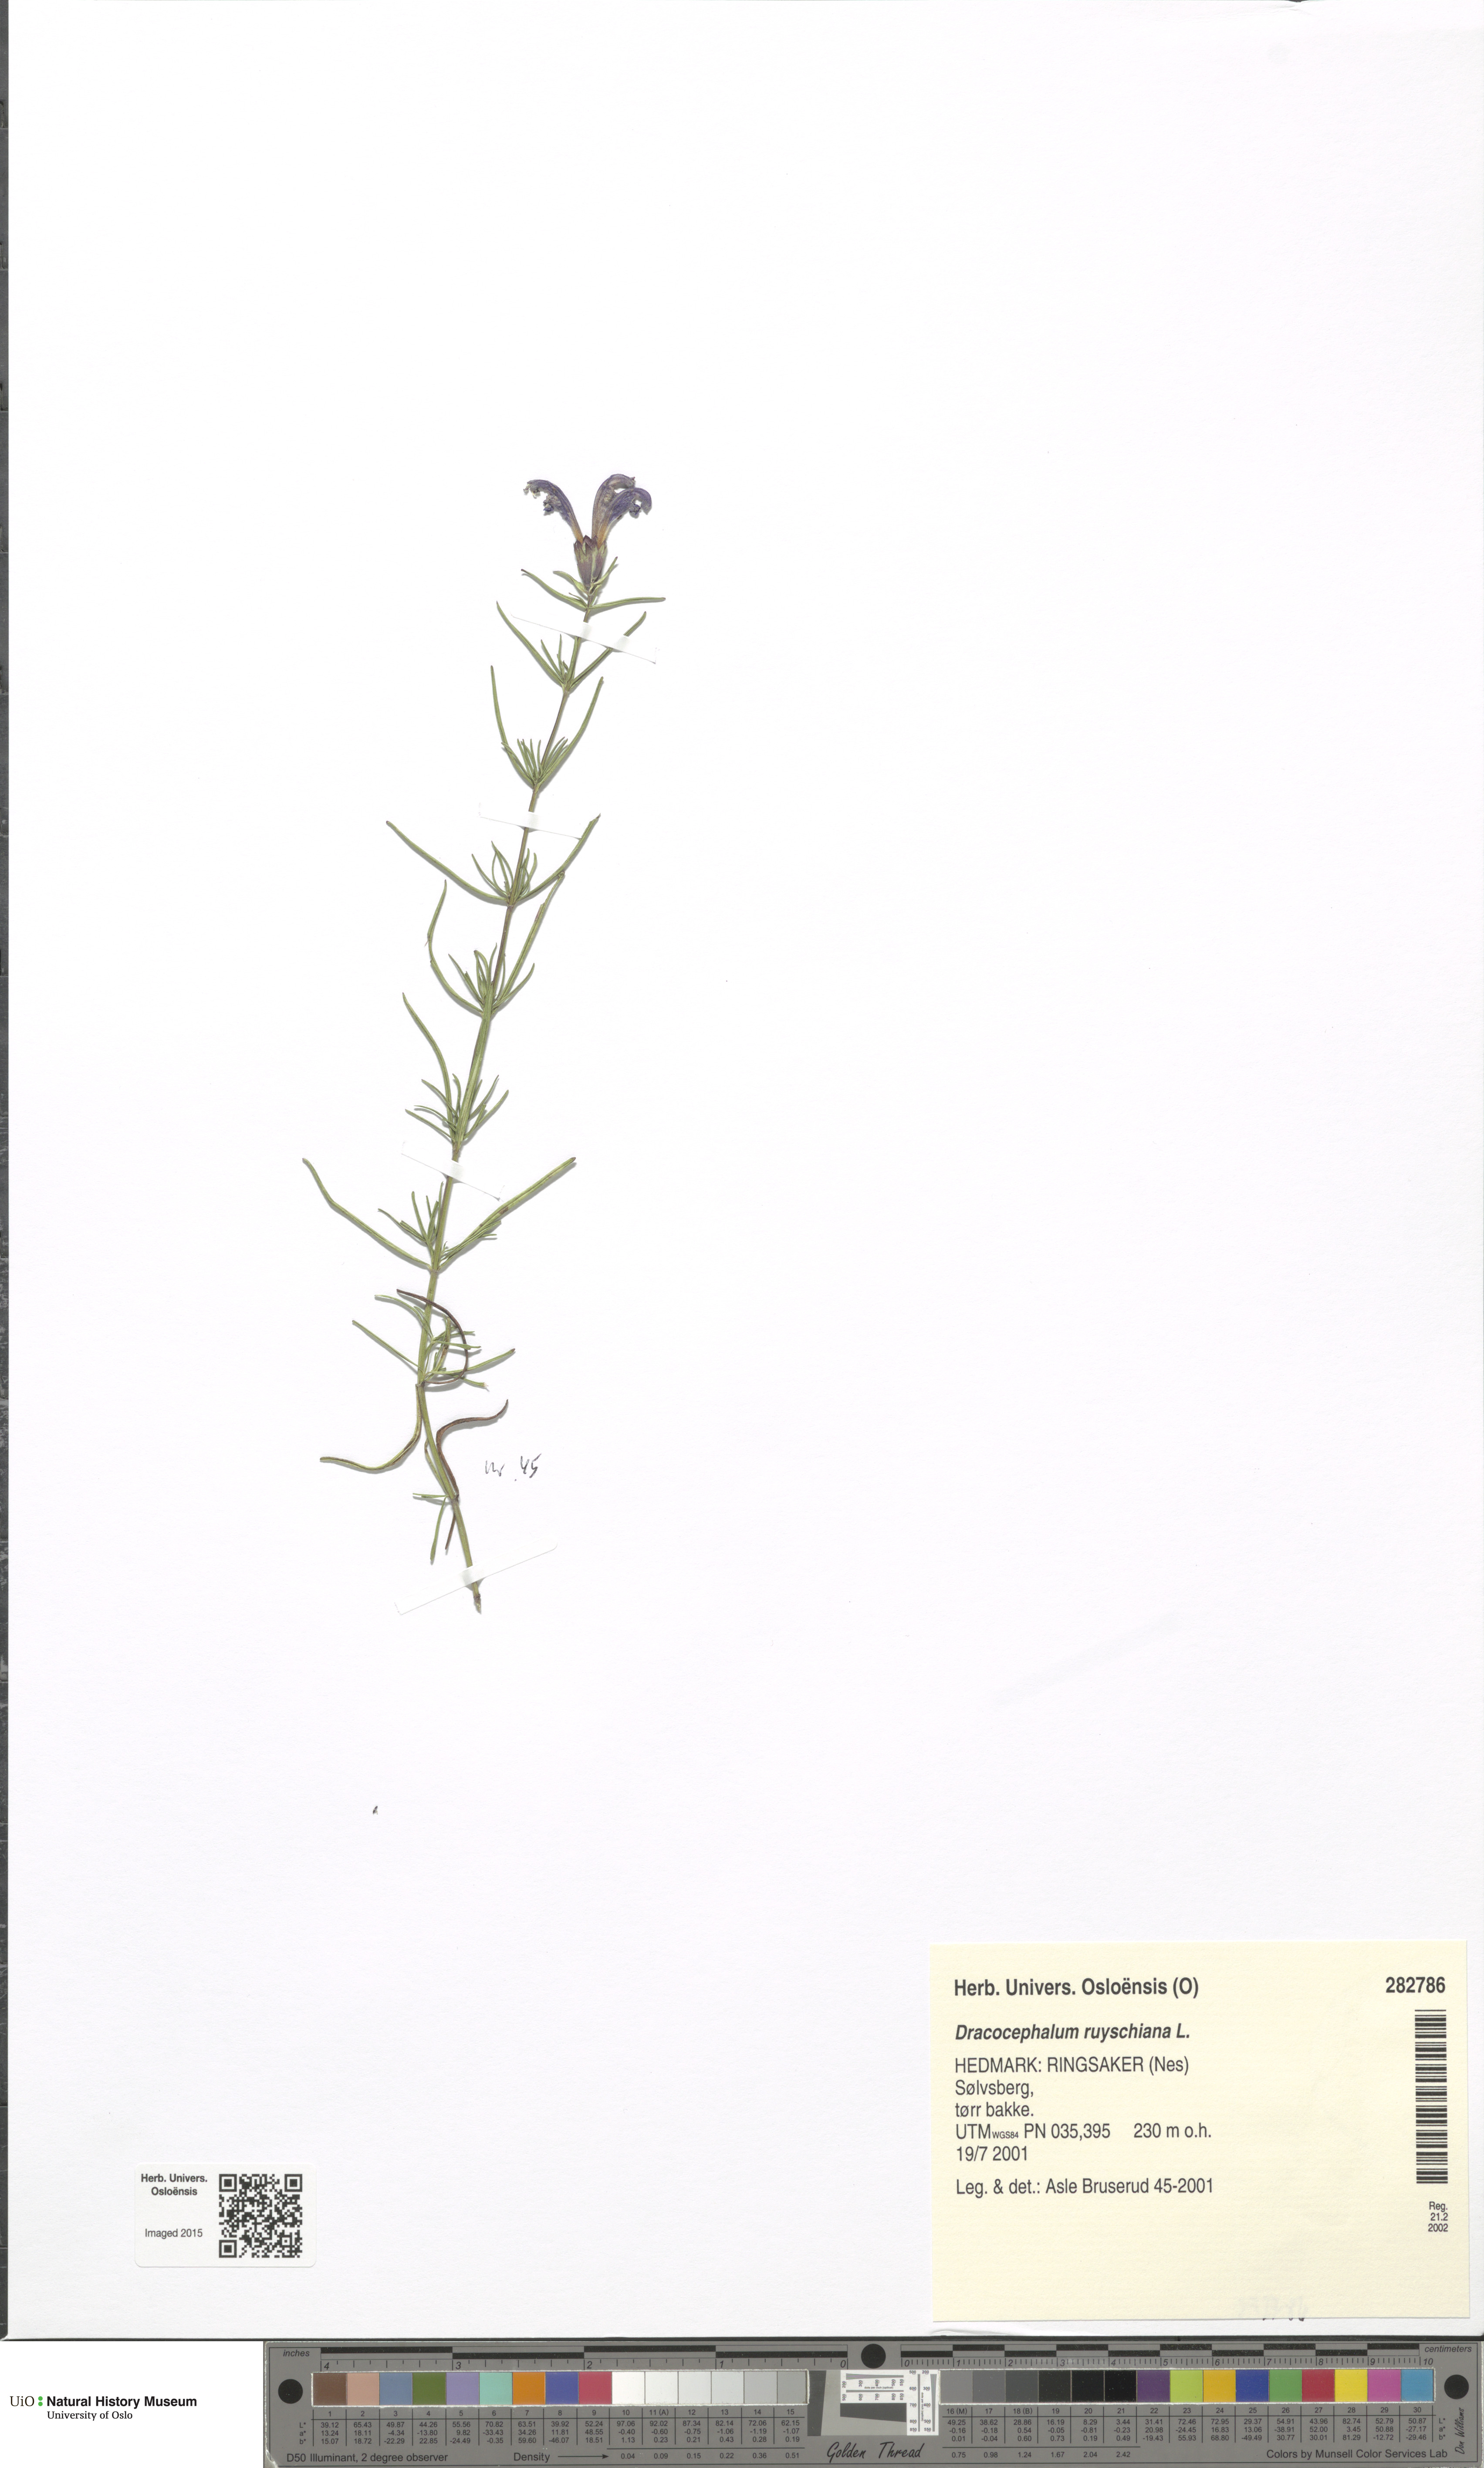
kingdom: Plantae
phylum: Tracheophyta
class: Magnoliopsida
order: Lamiales
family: Lamiaceae
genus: Dracocephalum
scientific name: Dracocephalum ruyschiana
